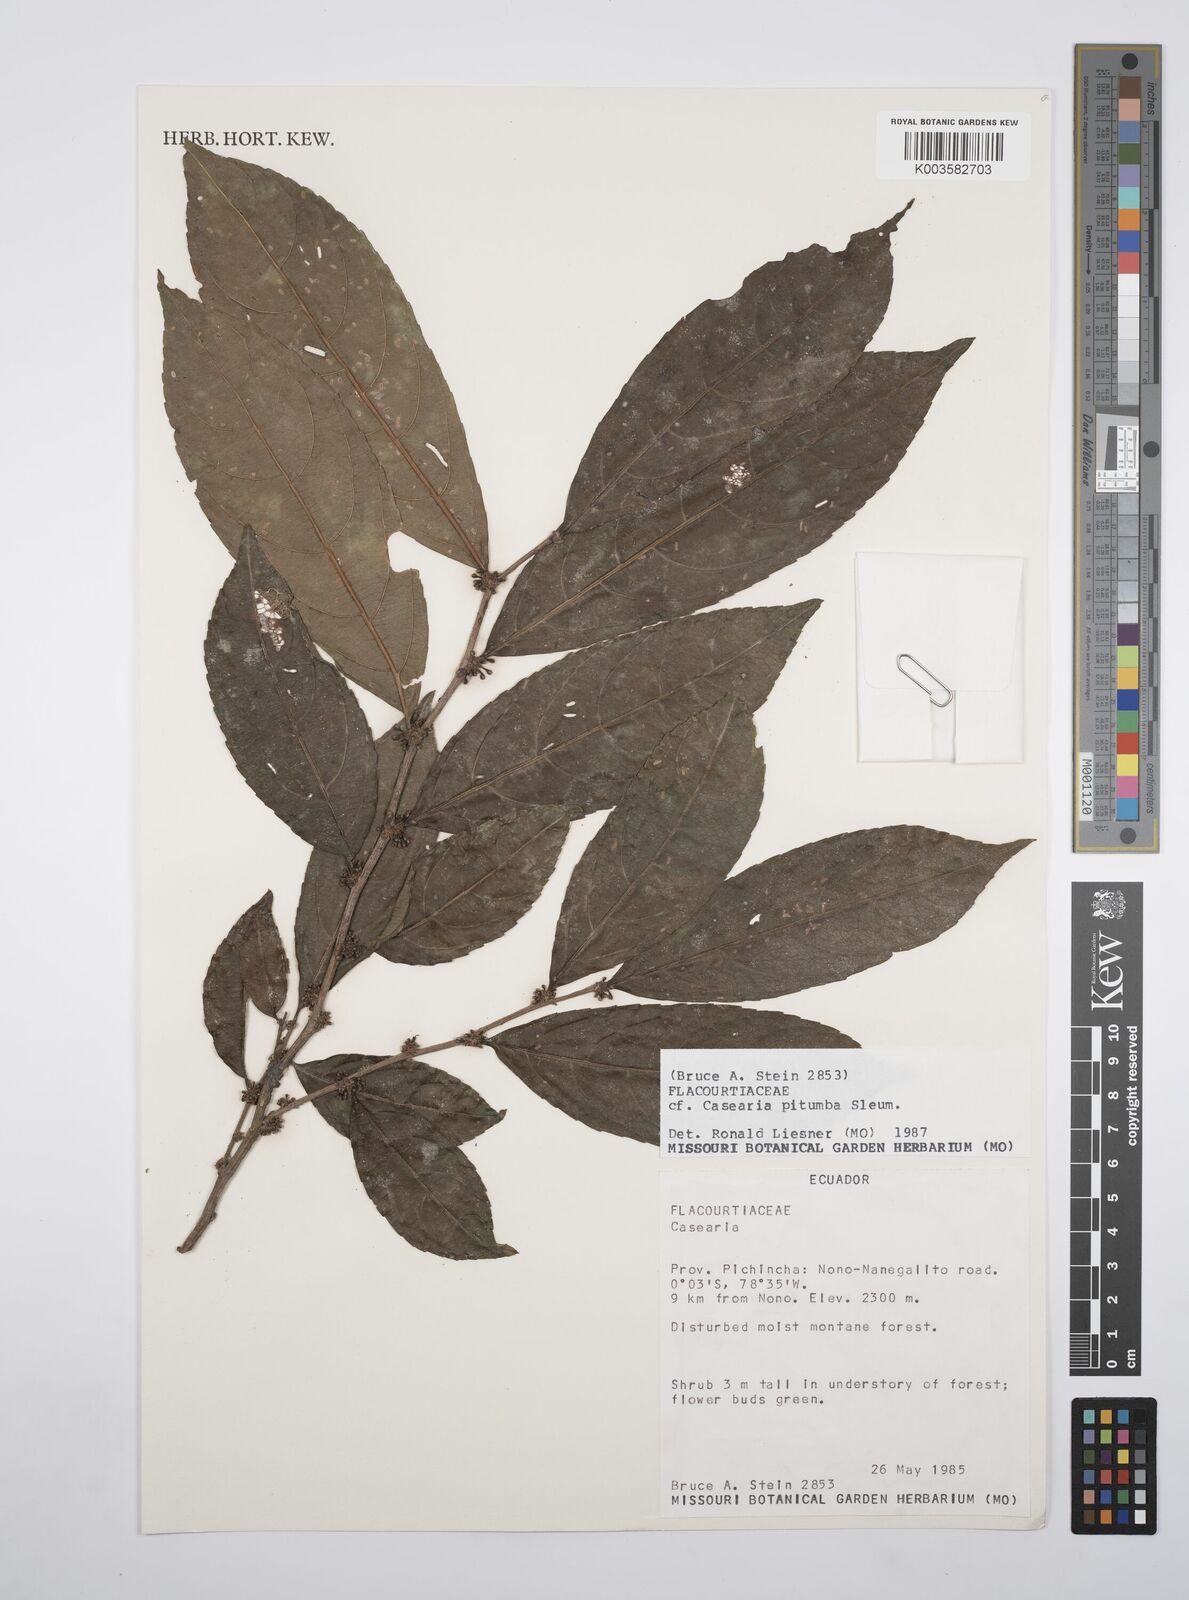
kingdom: Plantae
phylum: Tracheophyta
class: Magnoliopsida
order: Malpighiales
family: Salicaceae
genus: Casearia
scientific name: Casearia pitumba
